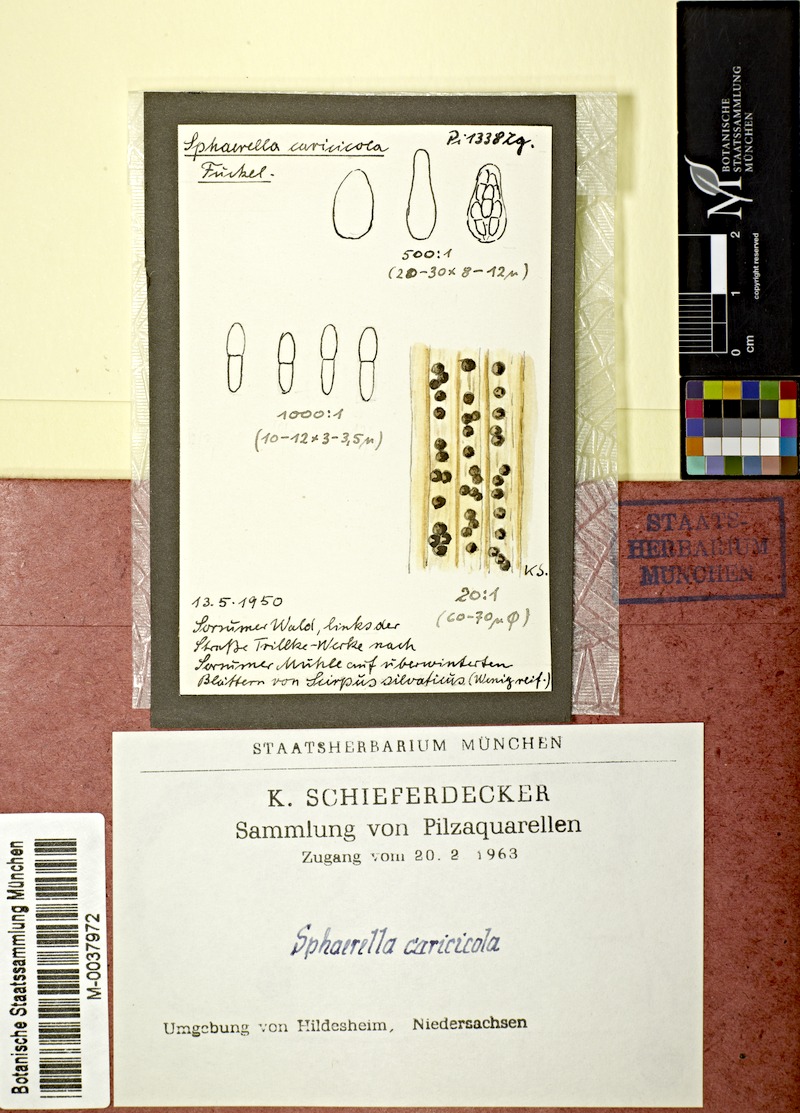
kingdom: Plantae
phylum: Tracheophyta
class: Liliopsida
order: Poales
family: Cyperaceae
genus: Scirpus
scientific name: Scirpus sylvaticus
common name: Wood club-rush
